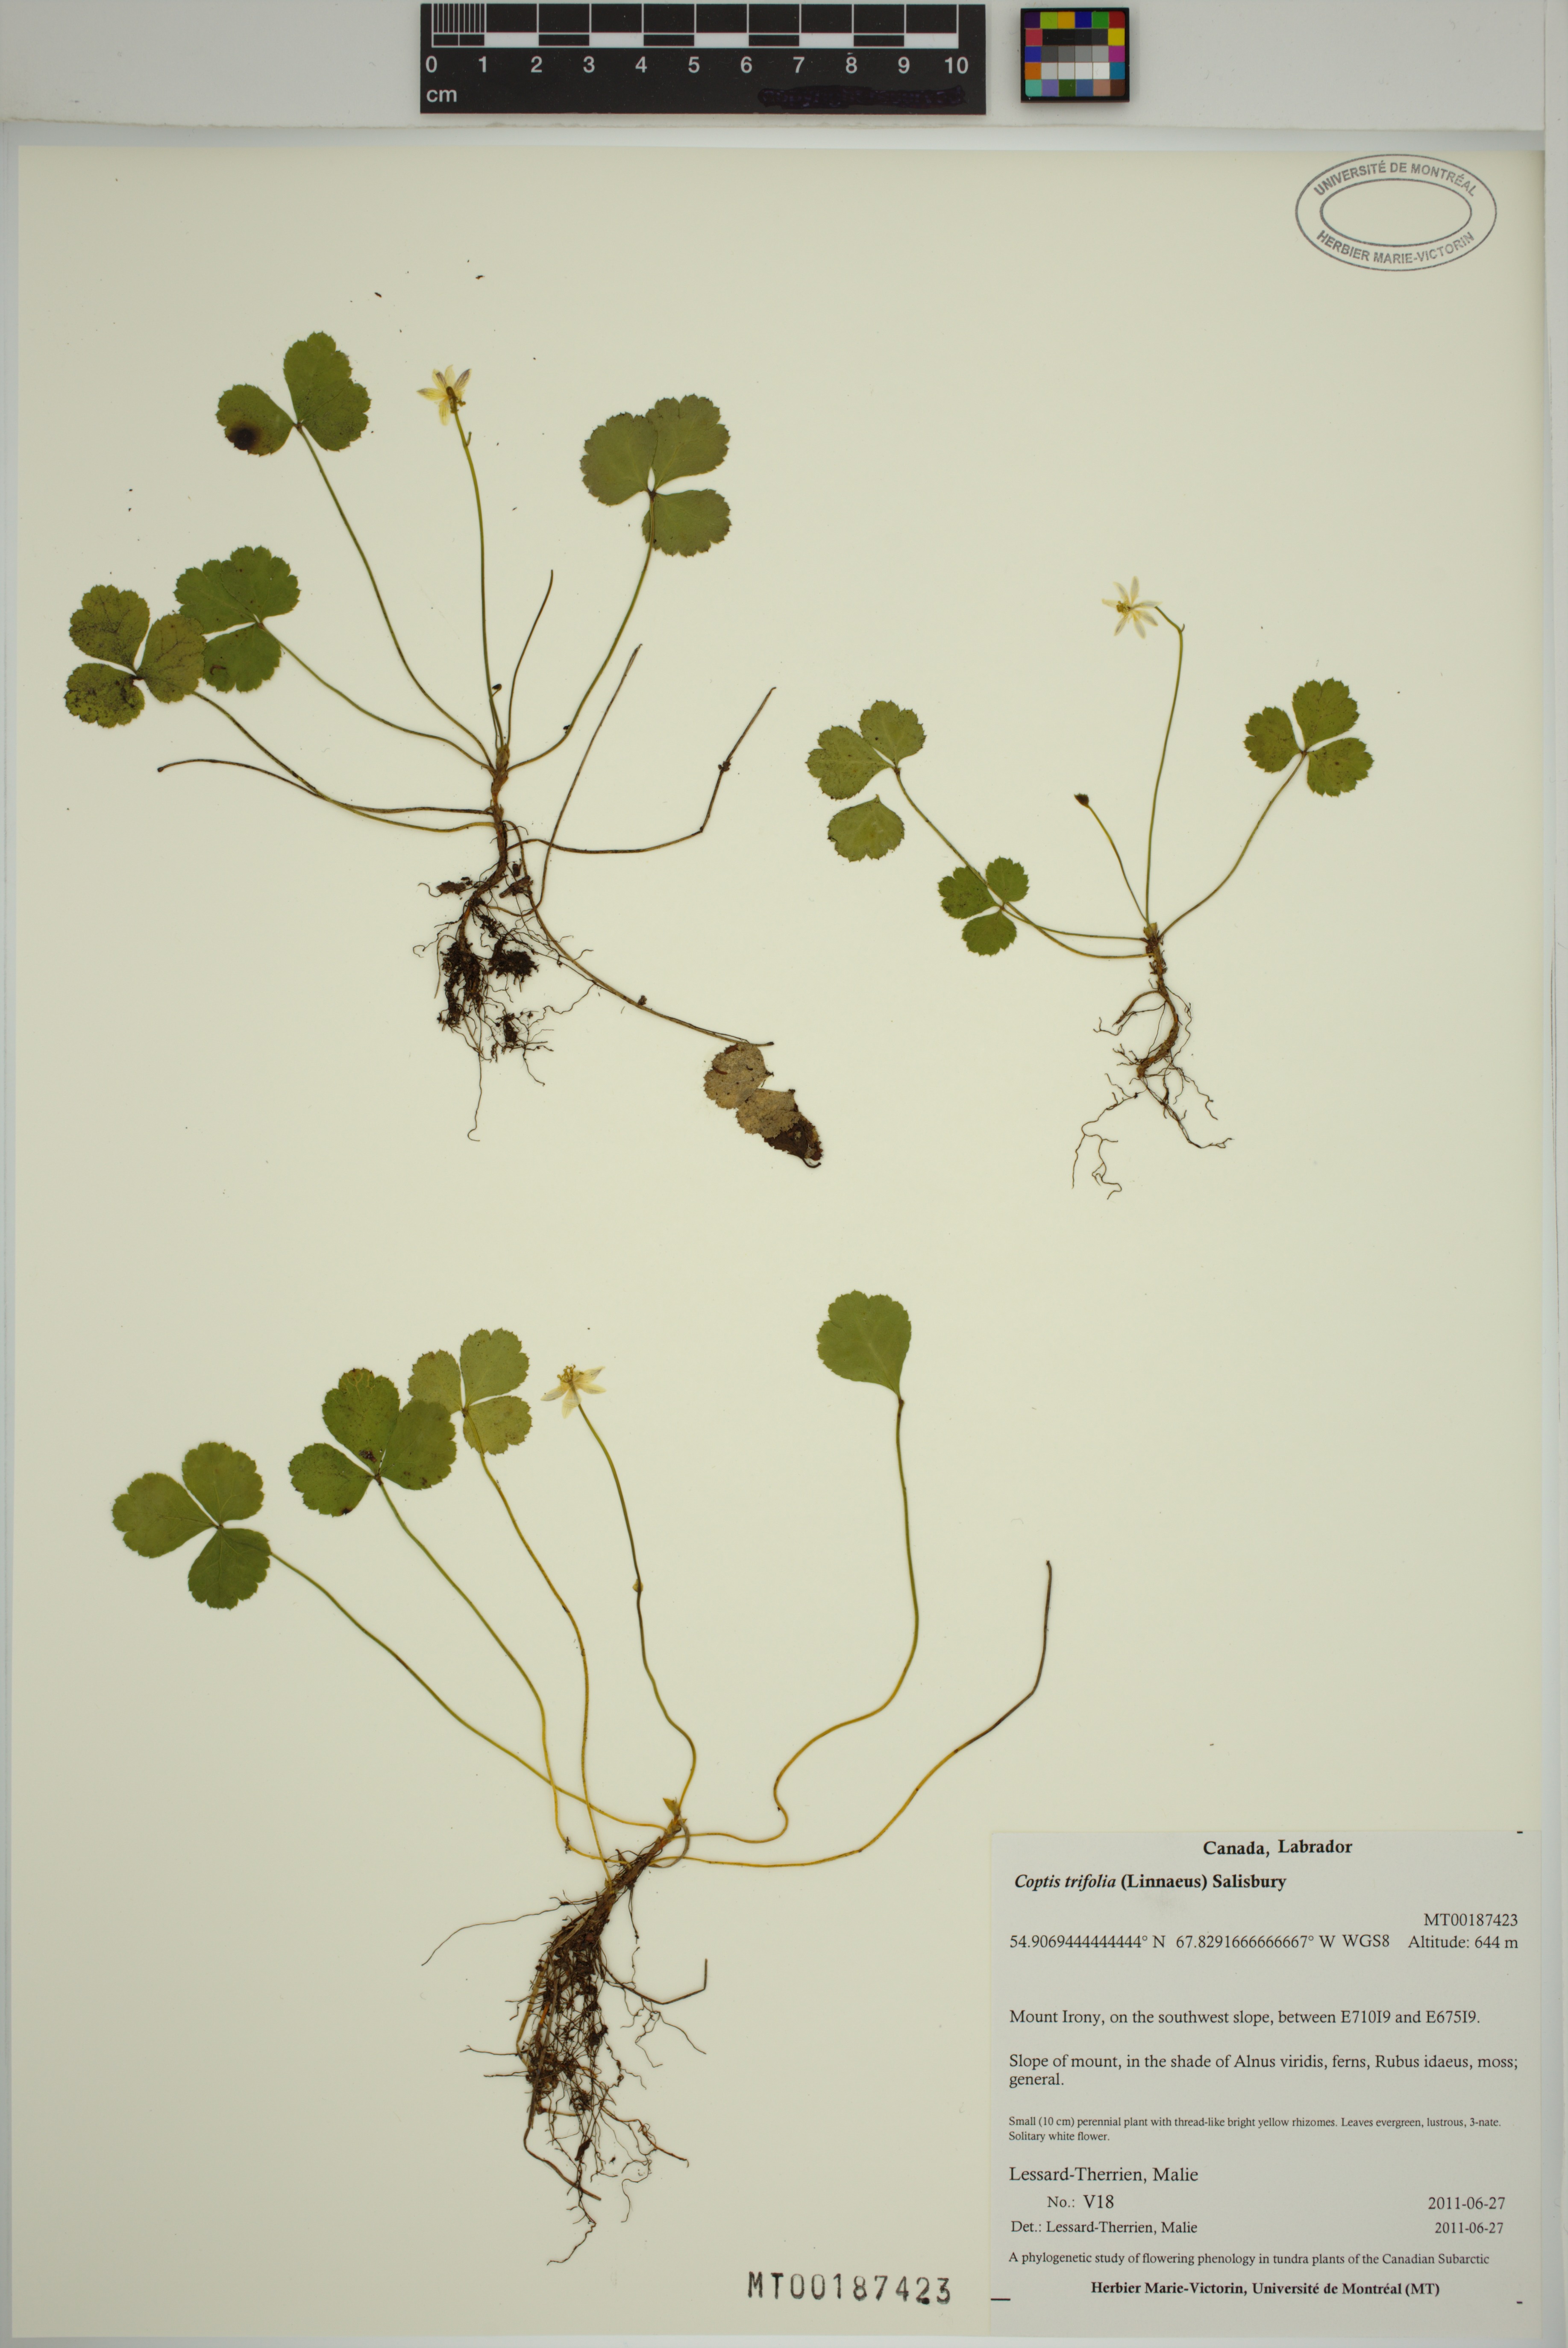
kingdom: Plantae
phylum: Tracheophyta
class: Magnoliopsida
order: Ranunculales
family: Ranunculaceae
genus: Coptis
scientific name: Coptis trifolia
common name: Canker-root
